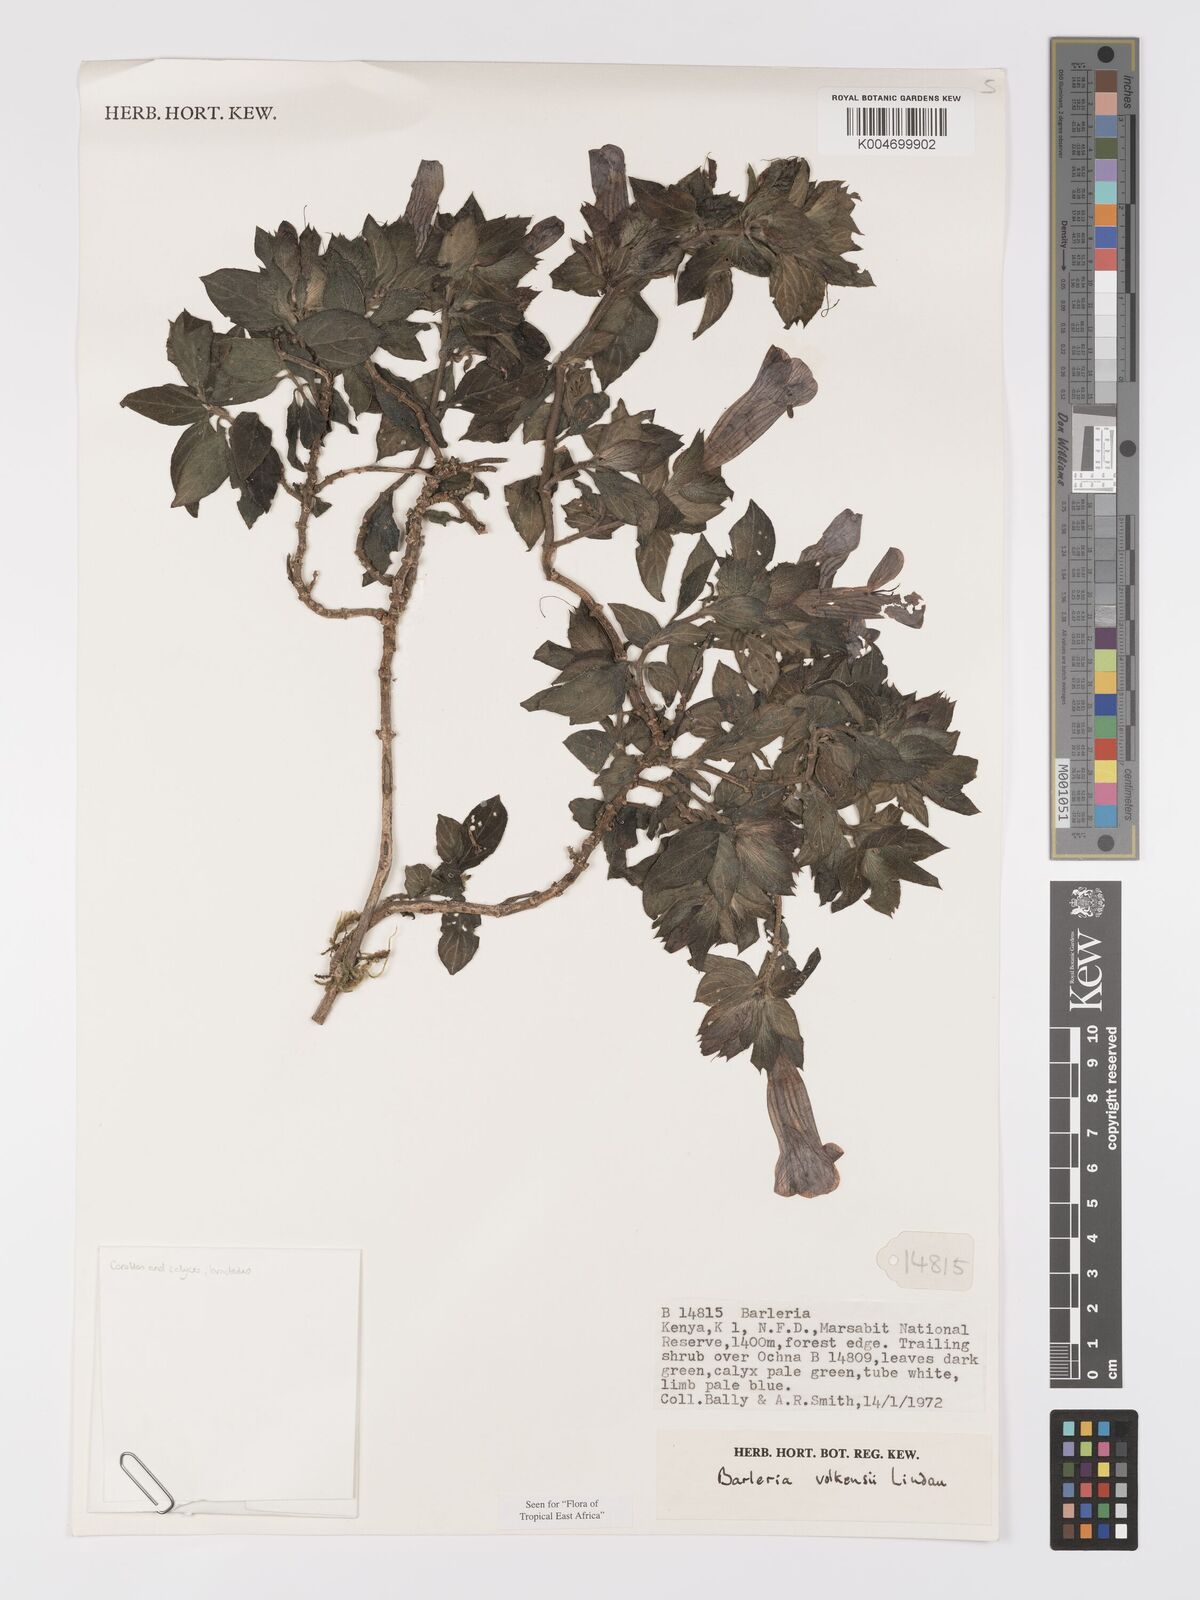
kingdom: Plantae
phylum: Tracheophyta
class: Magnoliopsida
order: Lamiales
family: Acanthaceae
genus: Barleria
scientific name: Barleria volkensii
